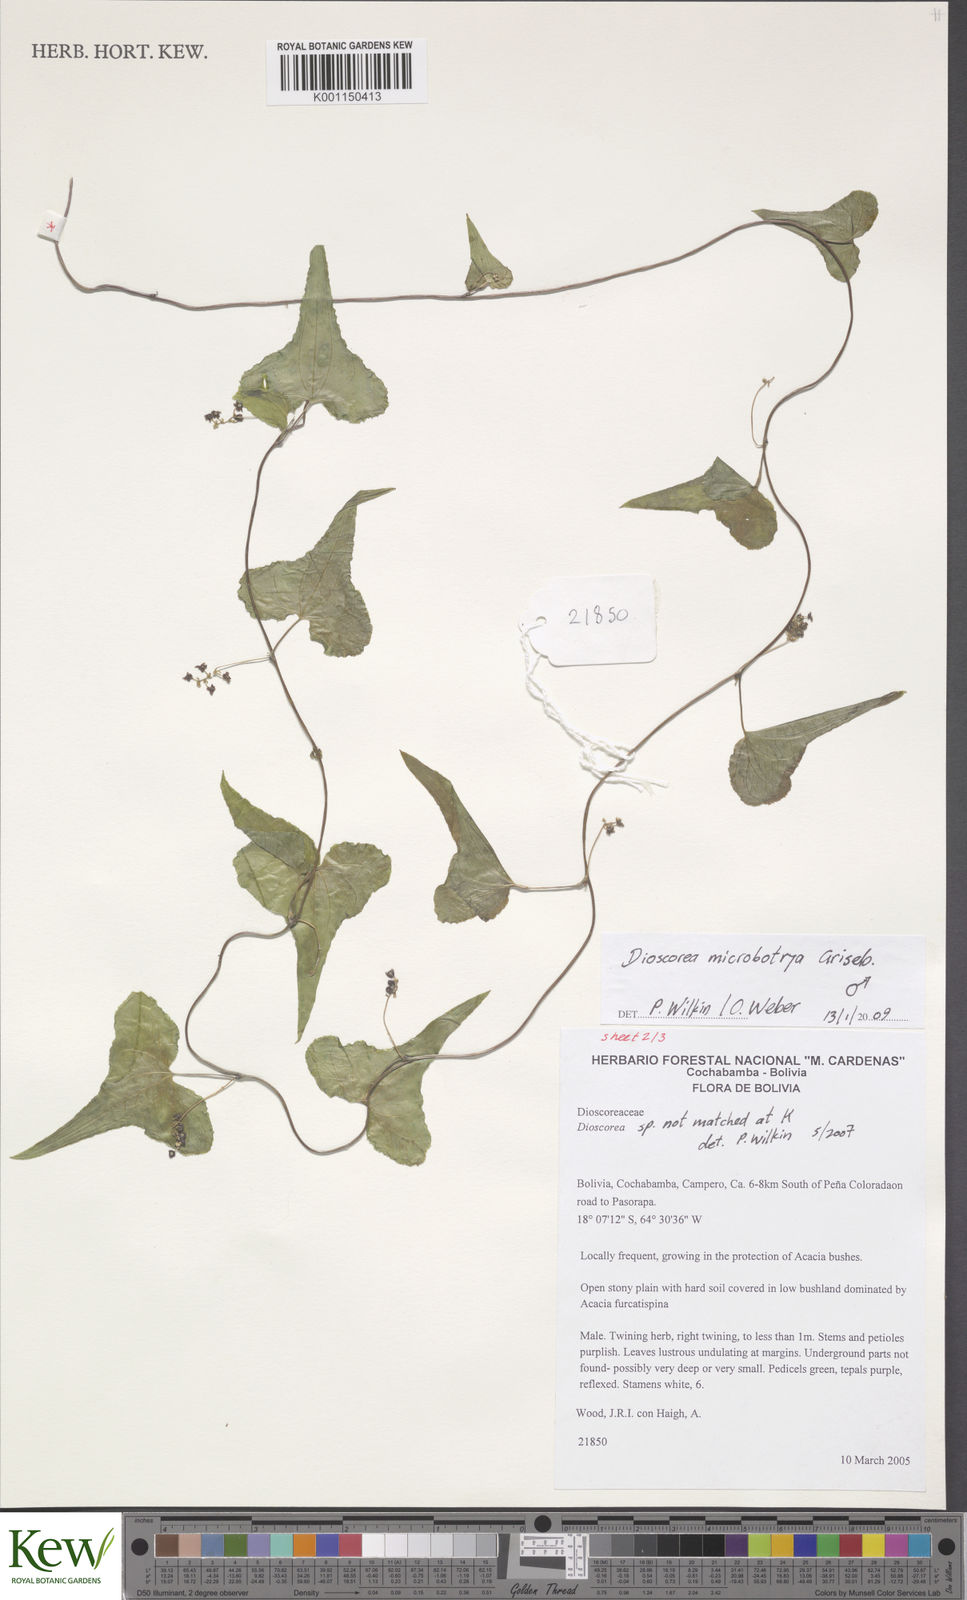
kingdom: Plantae
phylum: Tracheophyta
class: Liliopsida
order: Dioscoreales
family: Dioscoreaceae
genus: Dioscorea
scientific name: Dioscorea microbotrya
